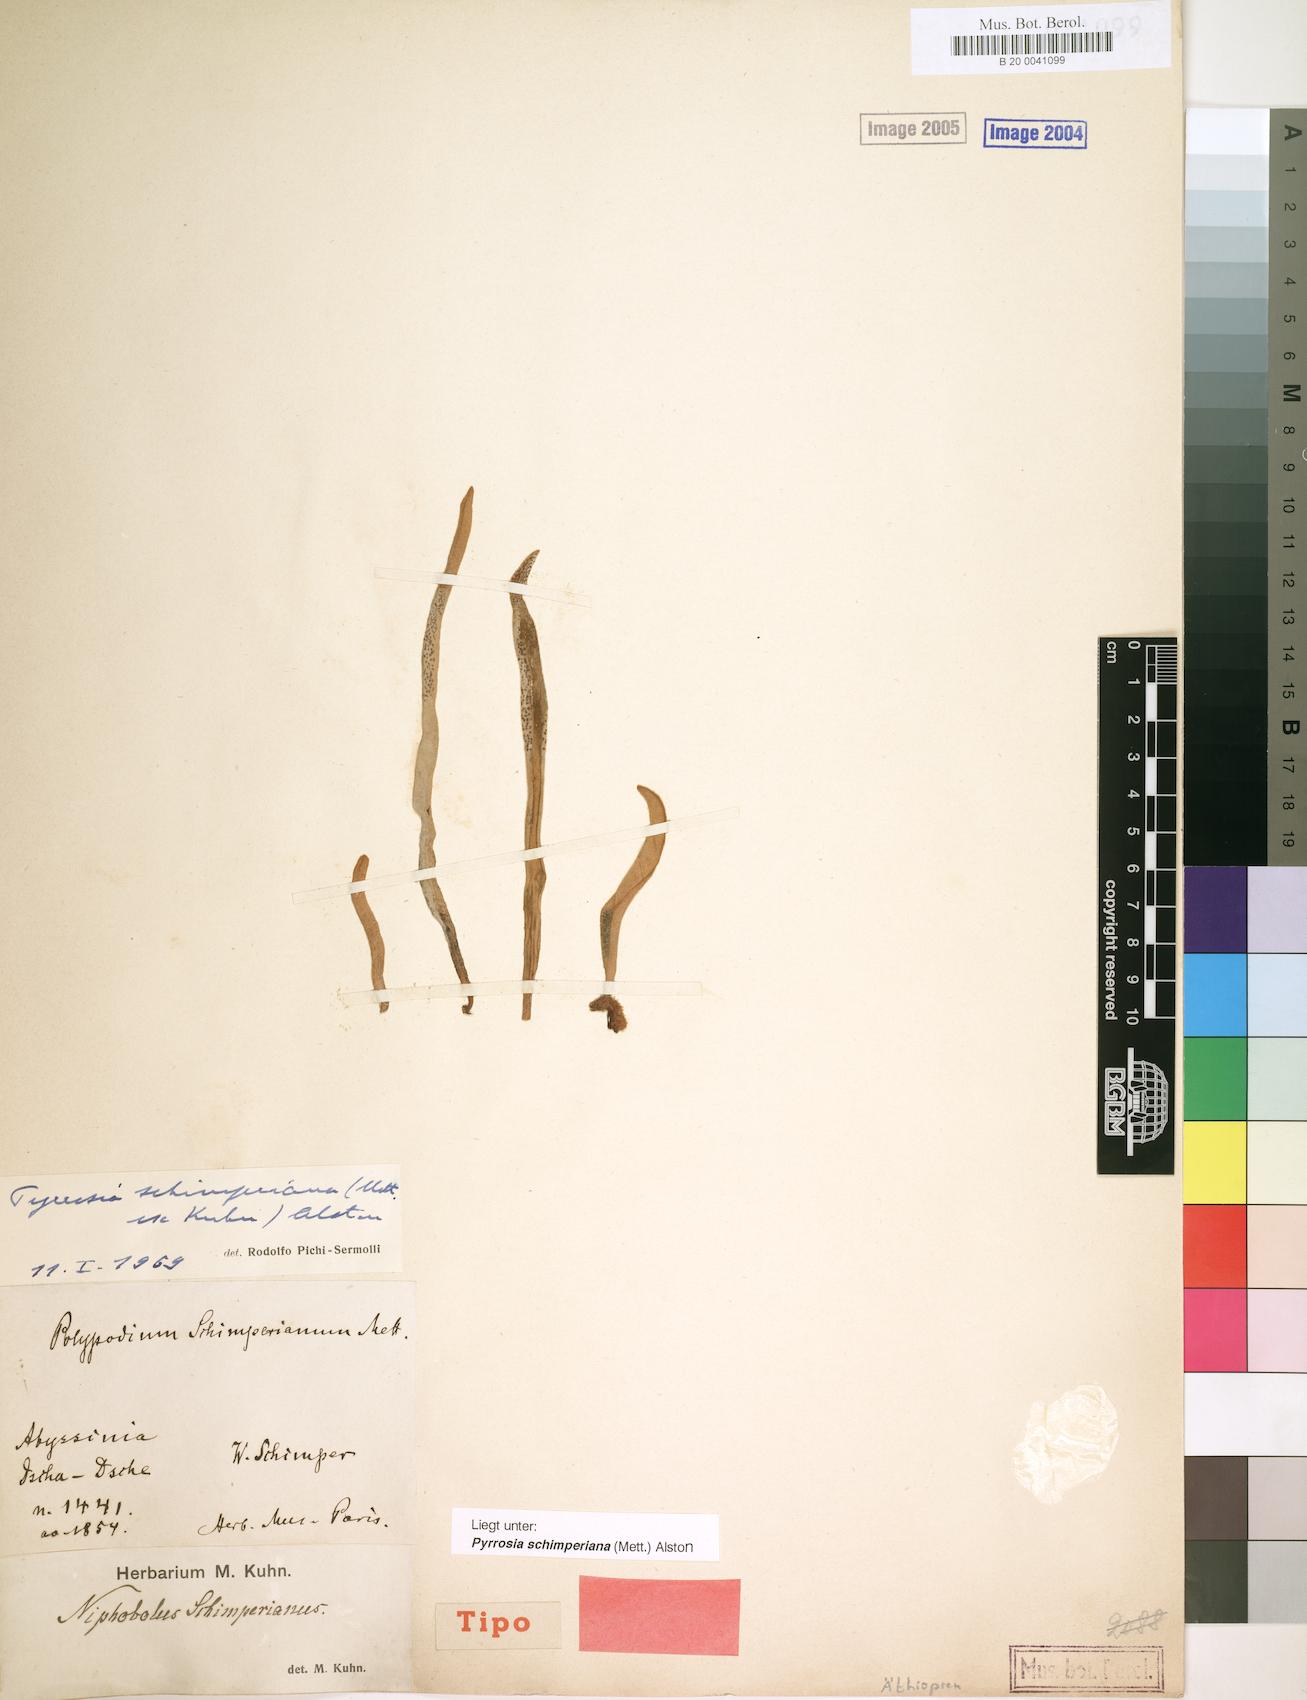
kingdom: Plantae
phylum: Tracheophyta
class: Polypodiopsida
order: Polypodiales
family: Polypodiaceae
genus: Hovenkampia
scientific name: Hovenkampia schimperiana
